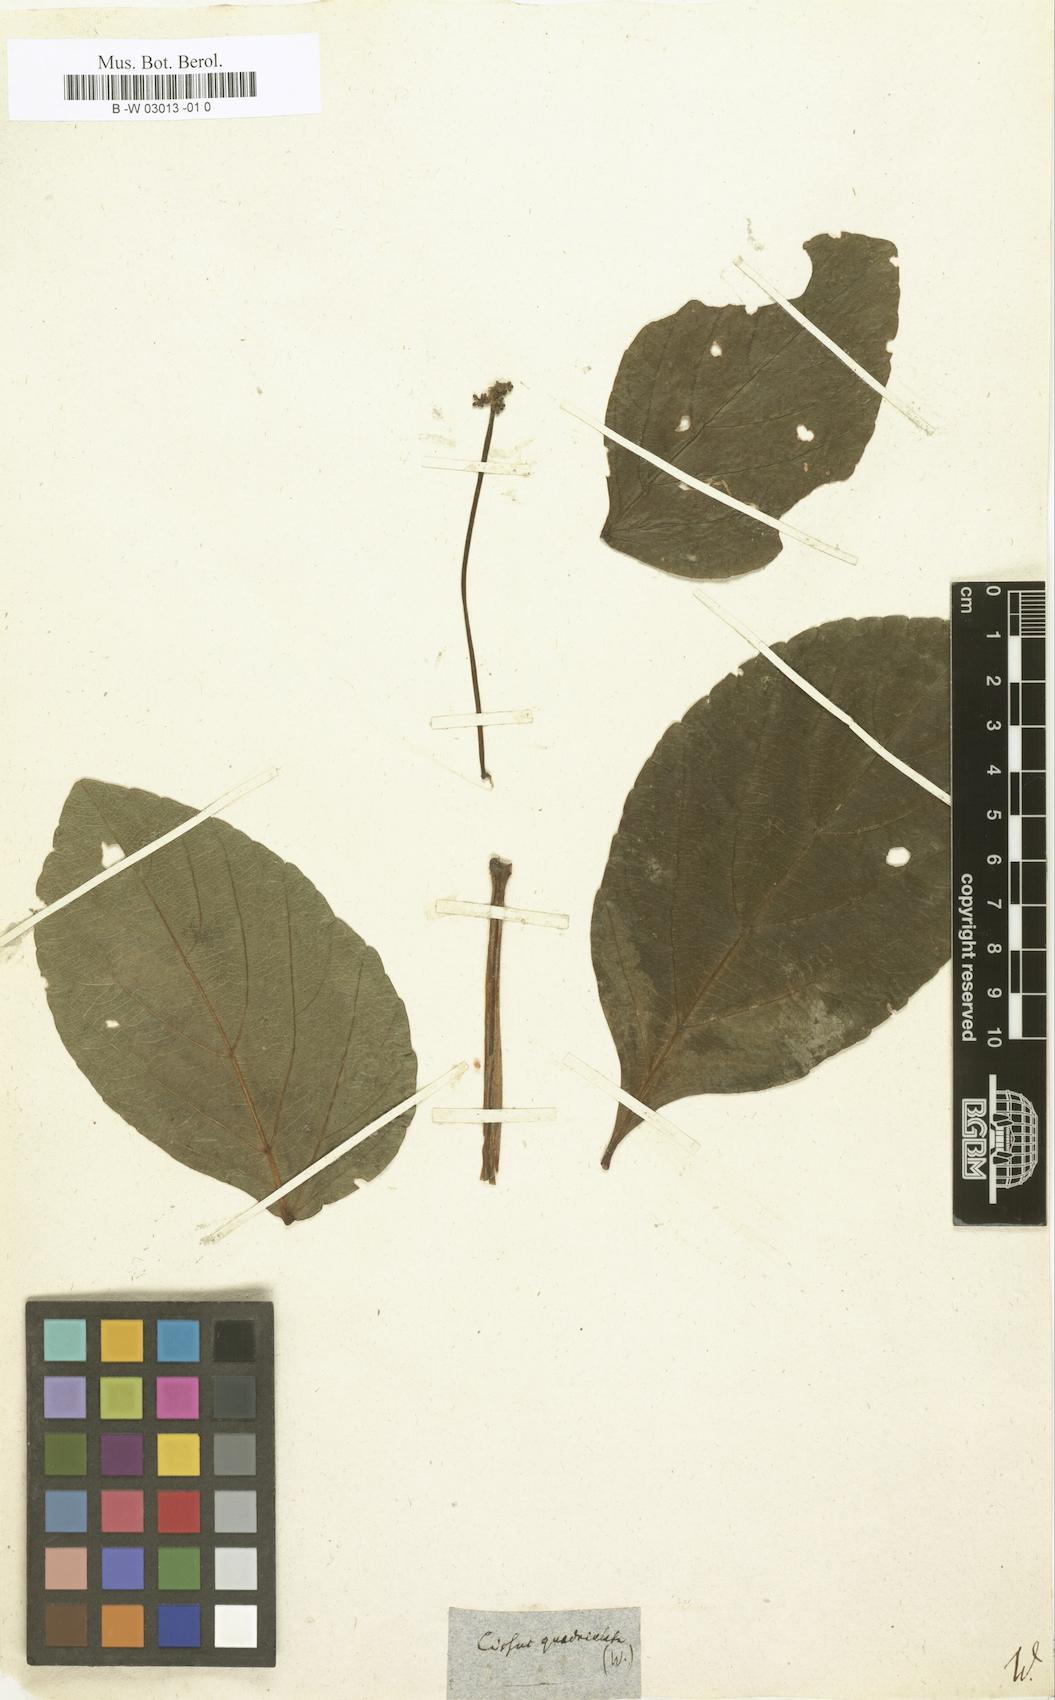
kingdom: Plantae
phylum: Tracheophyta
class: Magnoliopsida
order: Vitales
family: Vitaceae
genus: Cissus
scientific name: Cissus erosa
